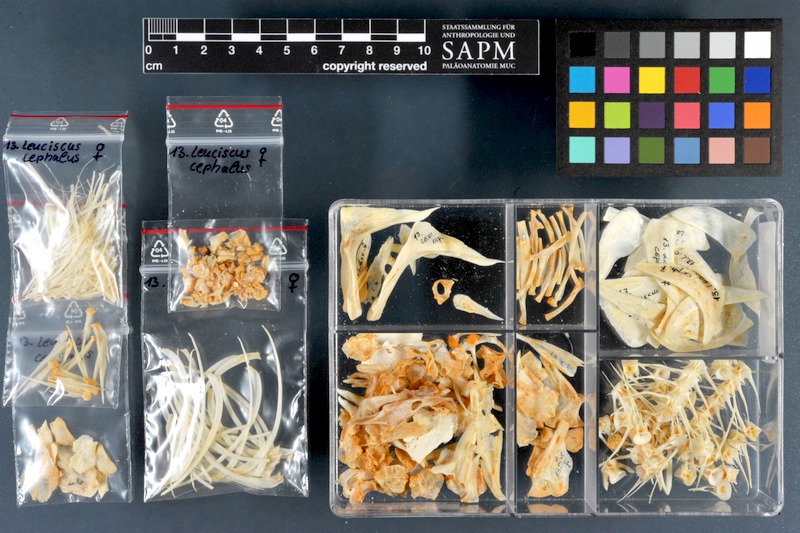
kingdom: Animalia
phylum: Chordata
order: Cypriniformes
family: Cyprinidae
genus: Squalius
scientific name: Squalius cephalus
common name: Chub
